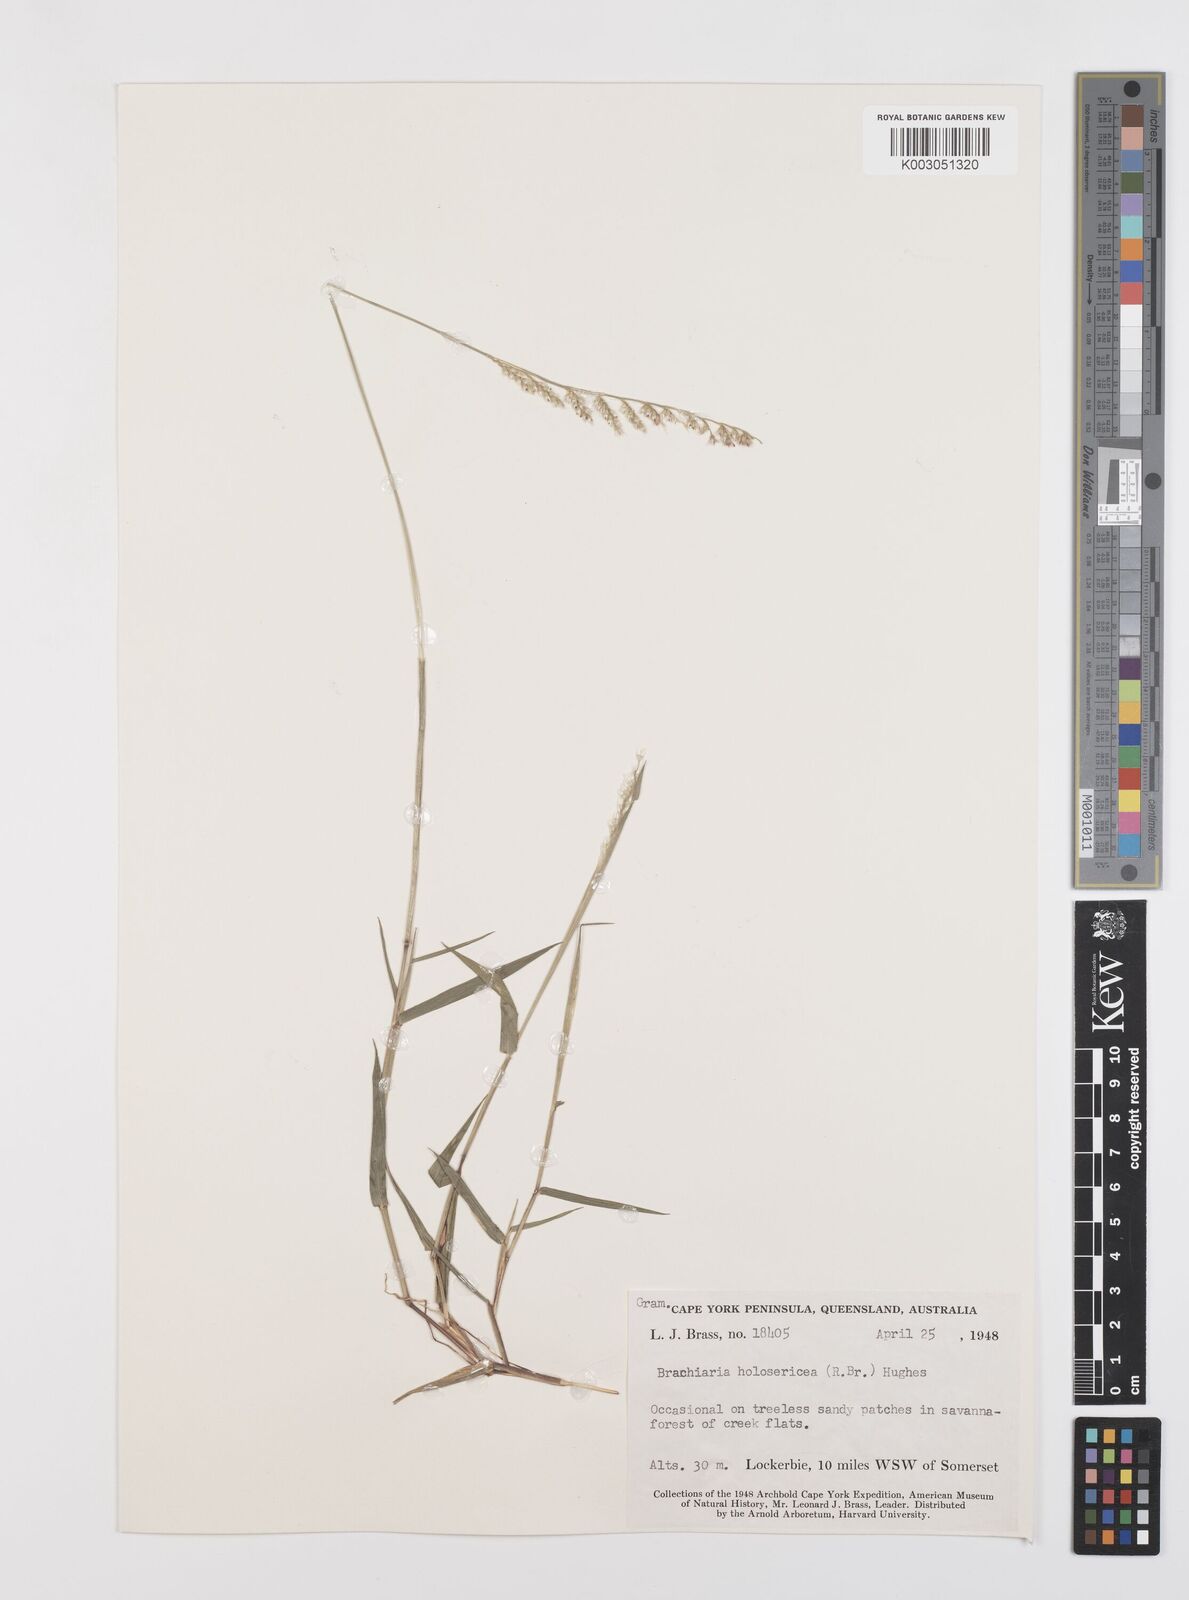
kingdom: Plantae
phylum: Tracheophyta
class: Liliopsida
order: Poales
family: Poaceae
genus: Urochloa
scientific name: Urochloa holosericea
